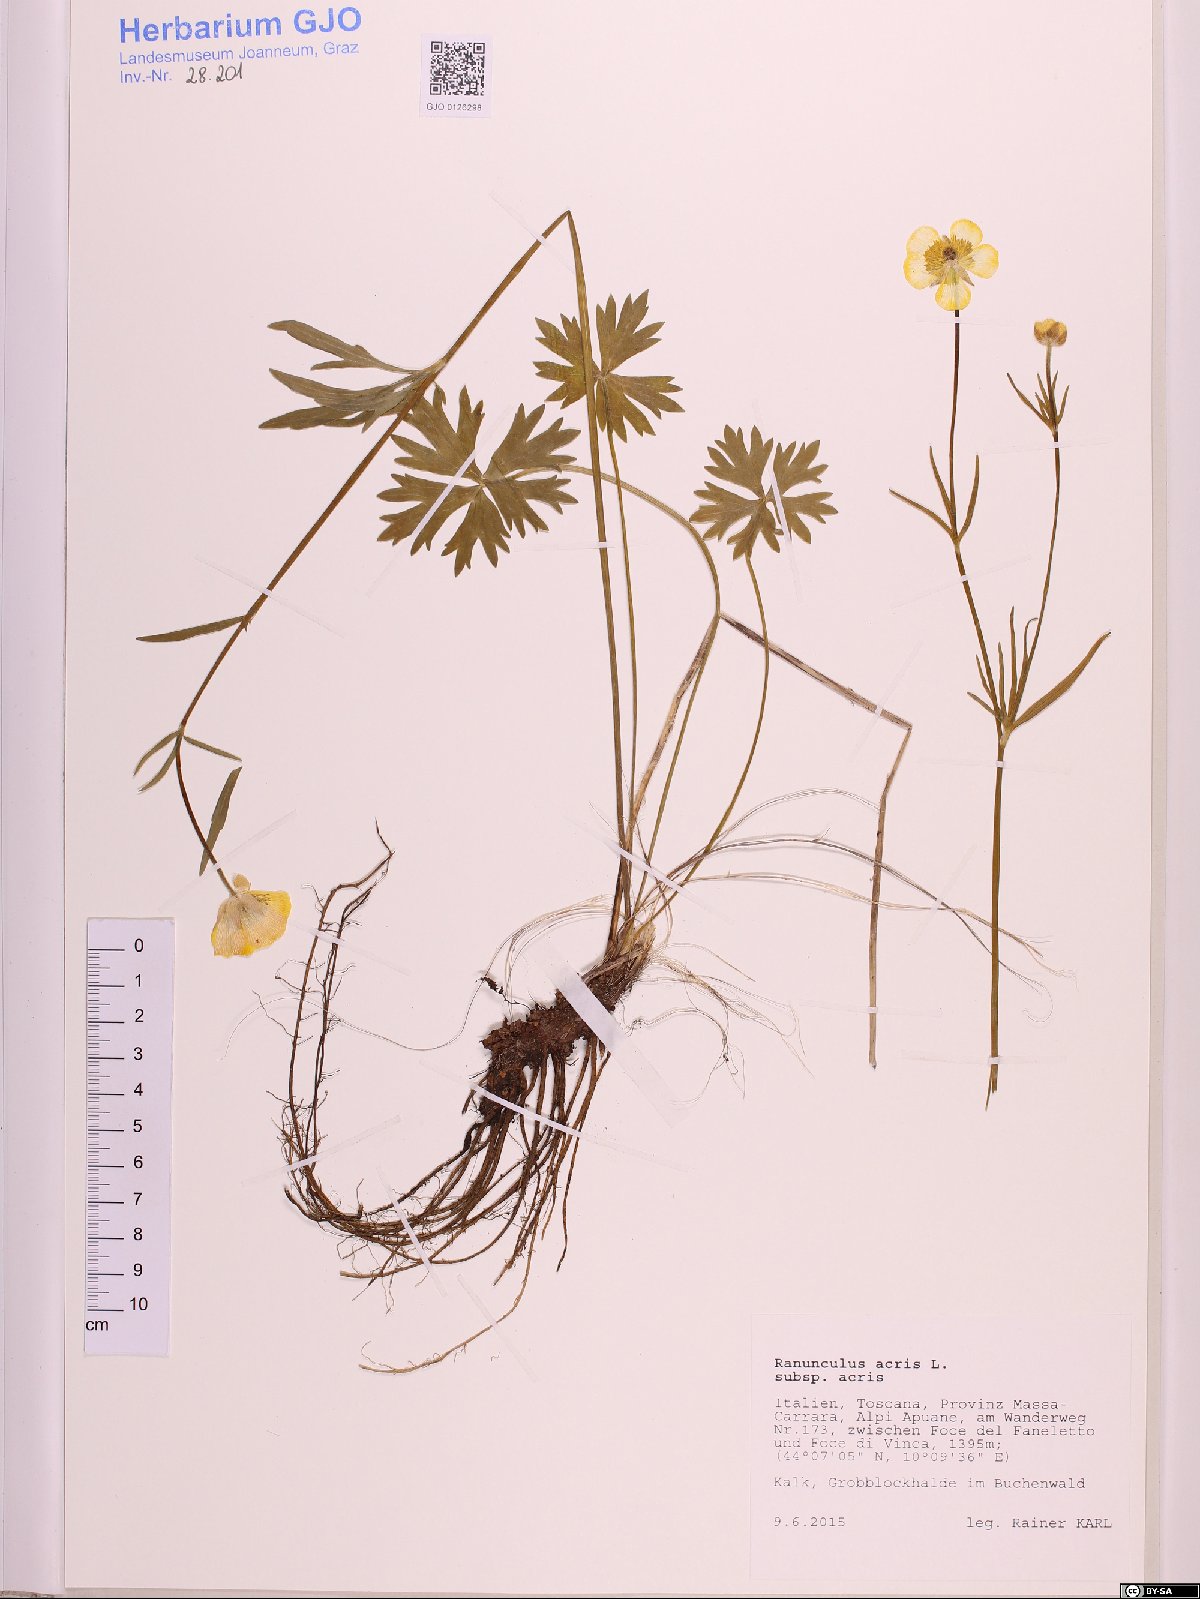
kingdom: Plantae
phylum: Tracheophyta
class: Magnoliopsida
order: Ranunculales
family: Ranunculaceae
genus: Ranunculus
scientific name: Ranunculus acris
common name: Meadow buttercup
